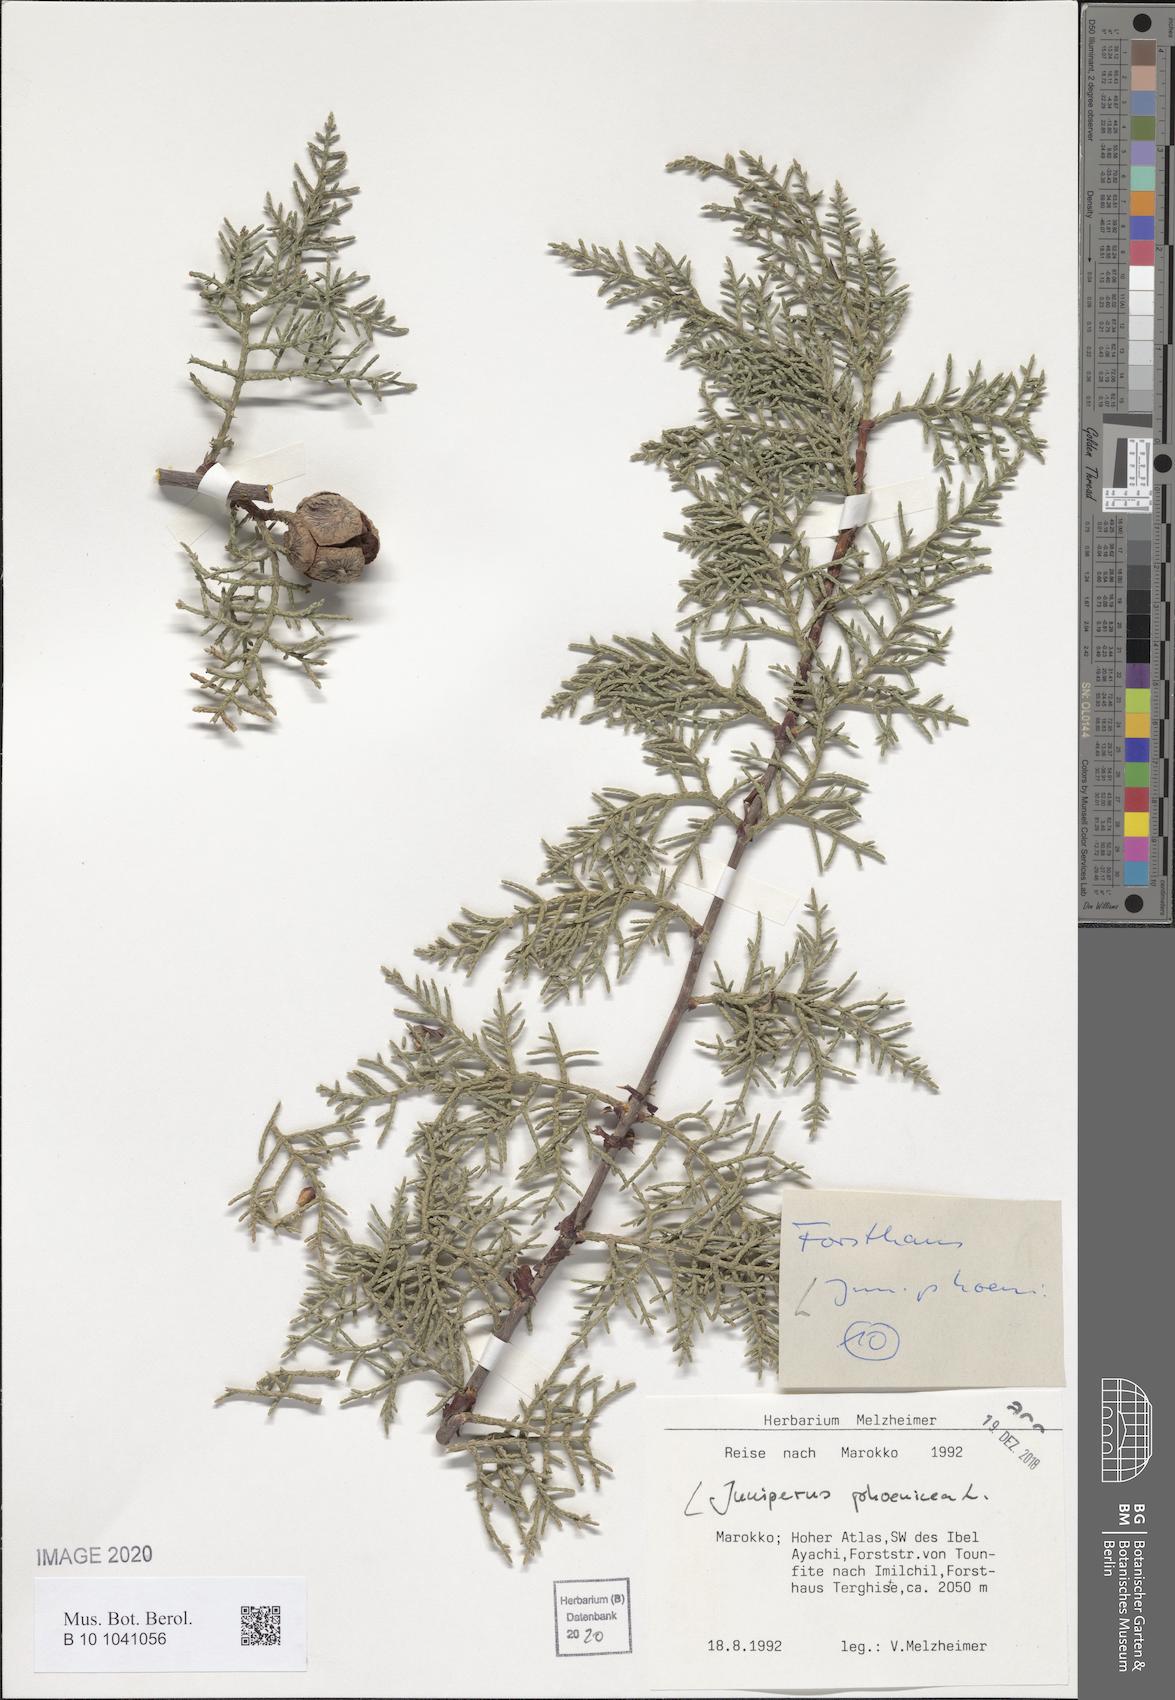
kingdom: Plantae
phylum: Tracheophyta
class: Pinopsida
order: Pinales
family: Cupressaceae
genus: Juniperus
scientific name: Juniperus phoenicea
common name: Phoenician juniper
